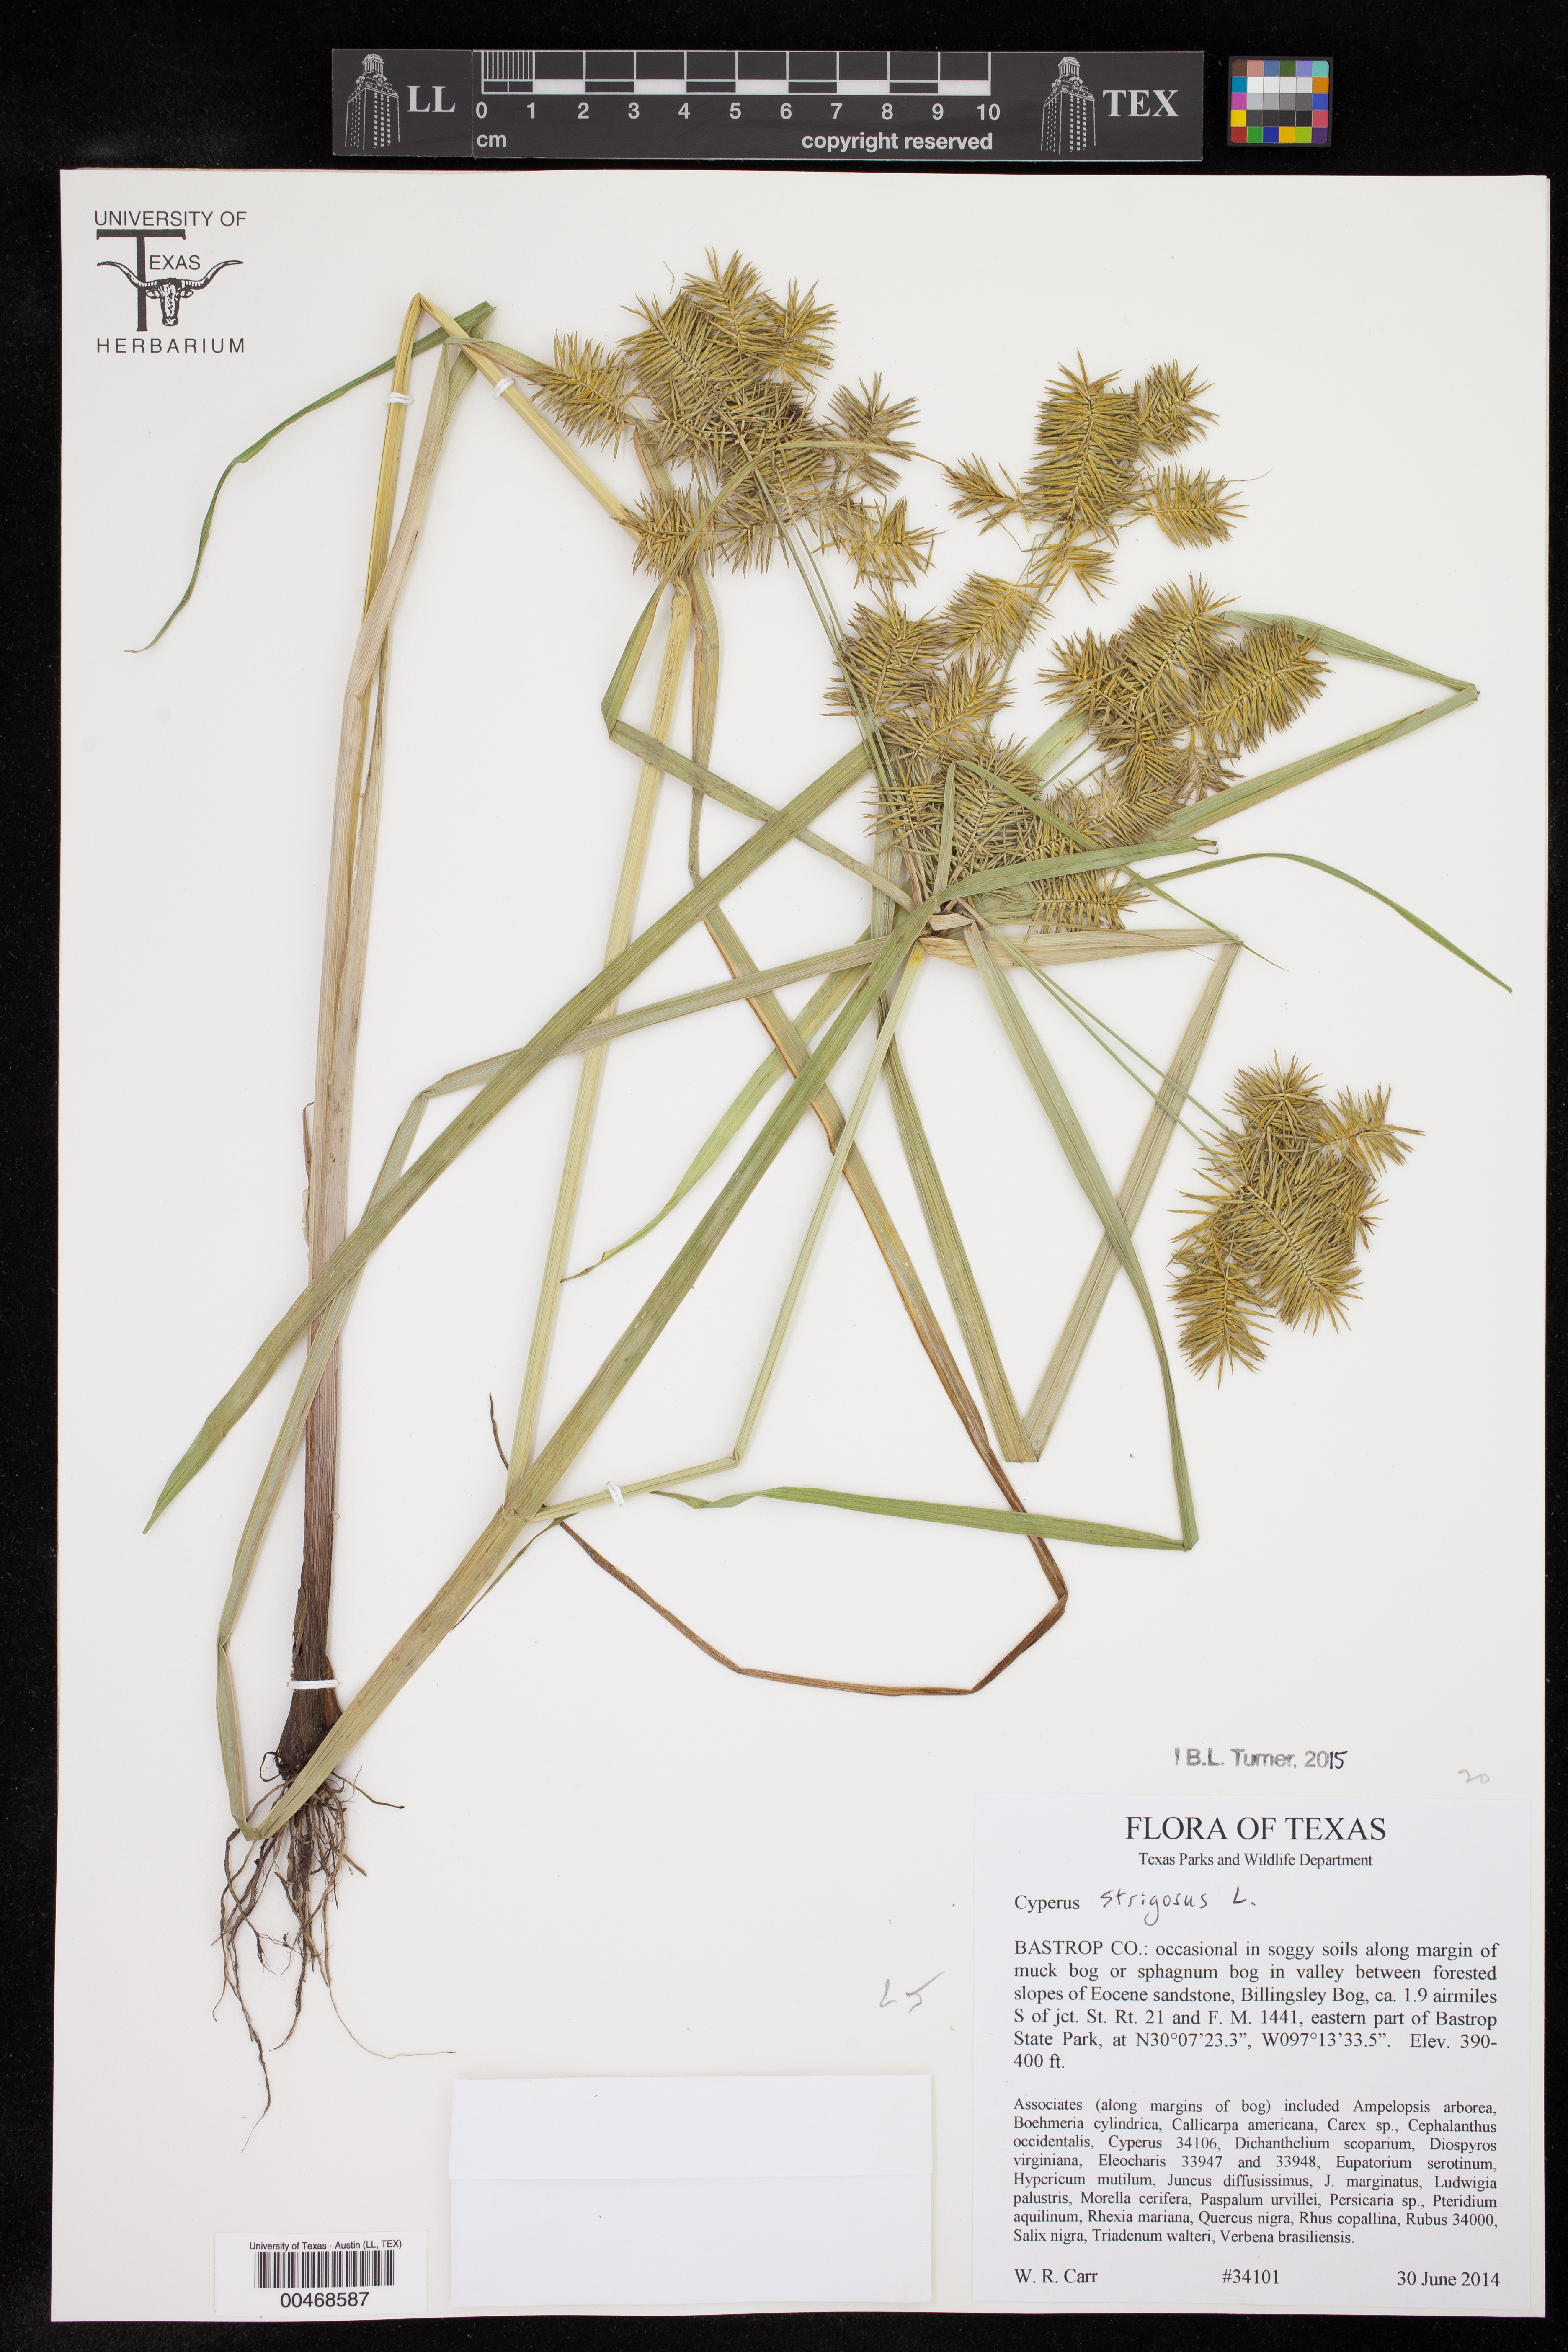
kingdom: Plantae
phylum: Tracheophyta
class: Liliopsida
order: Poales
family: Cyperaceae
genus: Cyperus
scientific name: Cyperus strigosus
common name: False nutsedge
